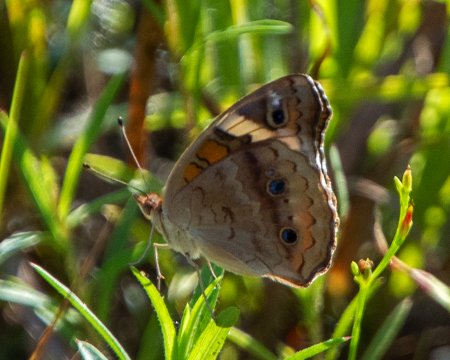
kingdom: Animalia
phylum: Arthropoda
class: Insecta
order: Lepidoptera
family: Nymphalidae
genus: Junonia
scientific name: Junonia coenia
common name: Common Buckeye
